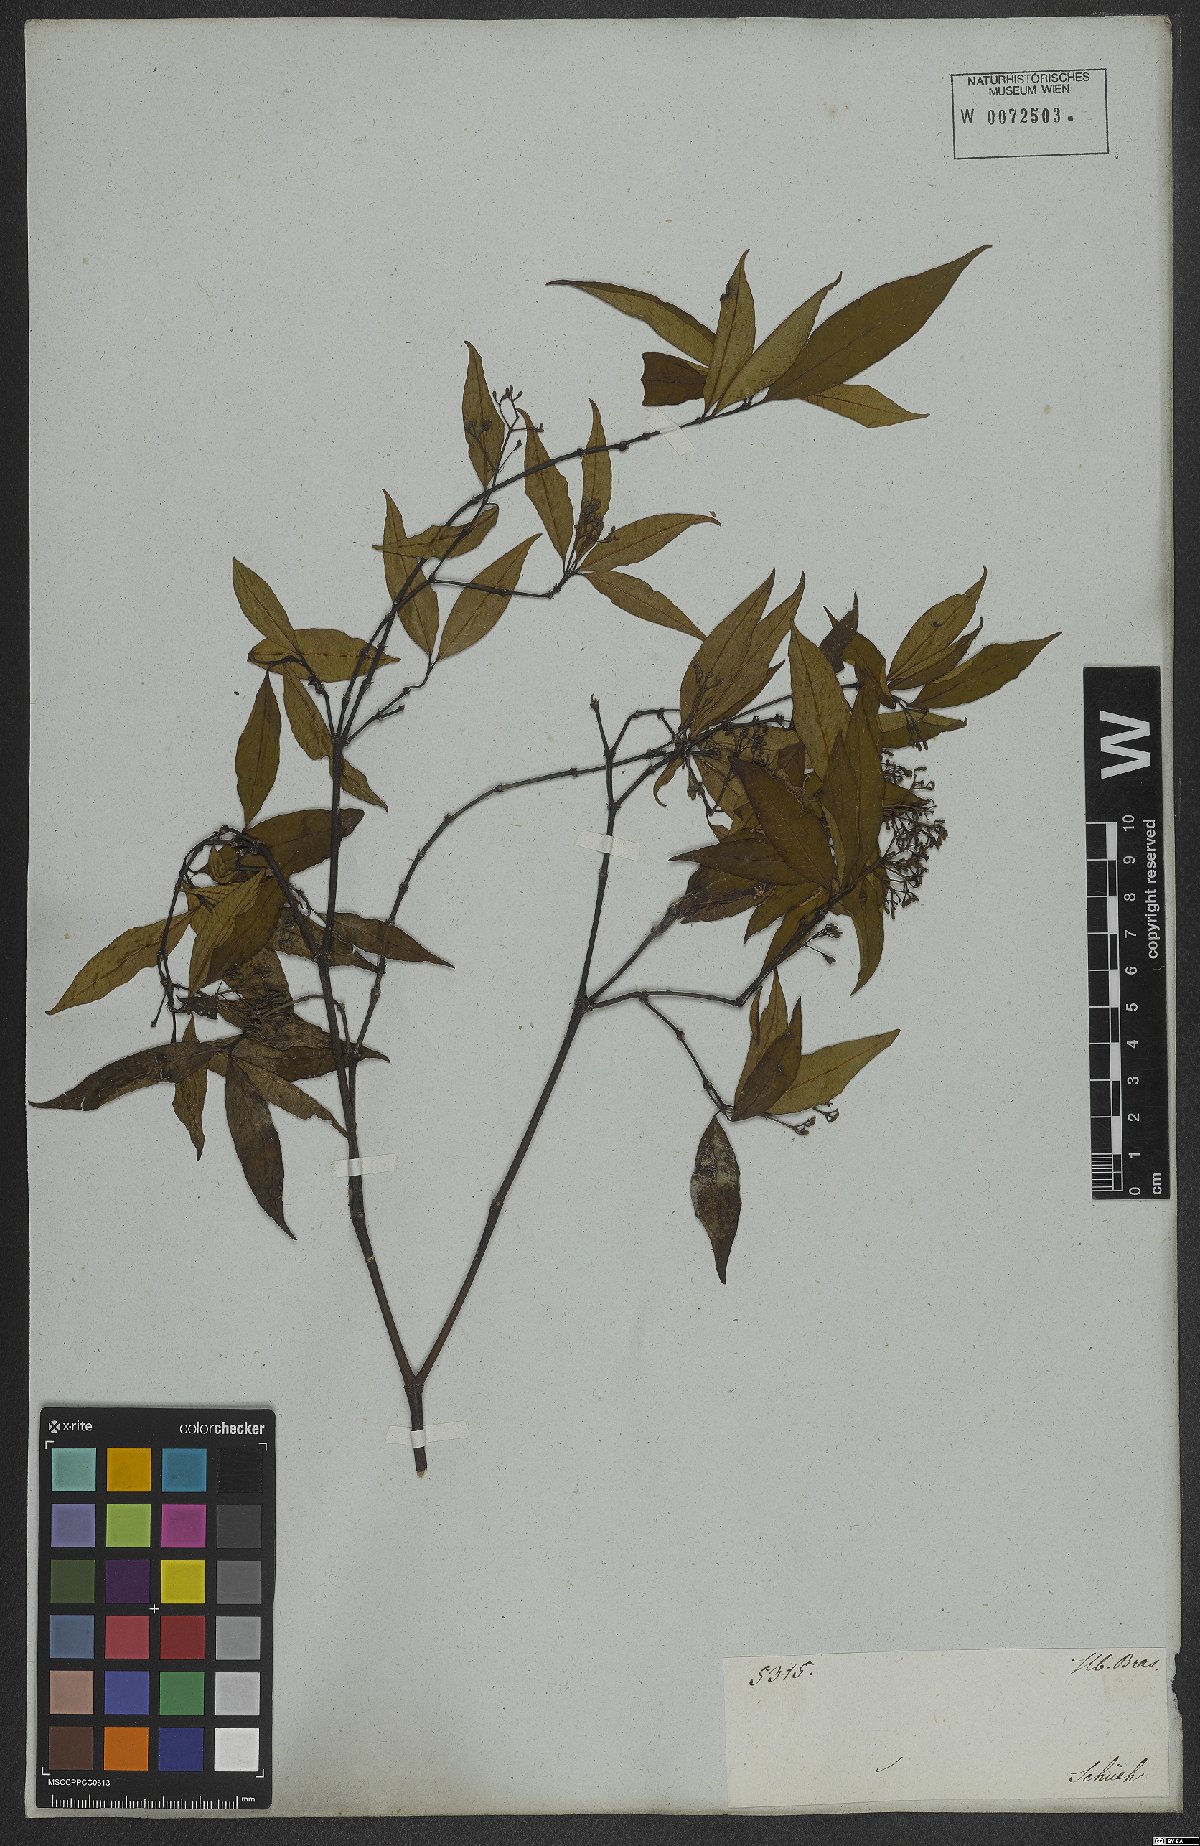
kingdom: Plantae
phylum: Tracheophyta
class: Magnoliopsida
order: Gentianales
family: Rubiaceae
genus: Psychotria
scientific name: Psychotria leiocarpa
